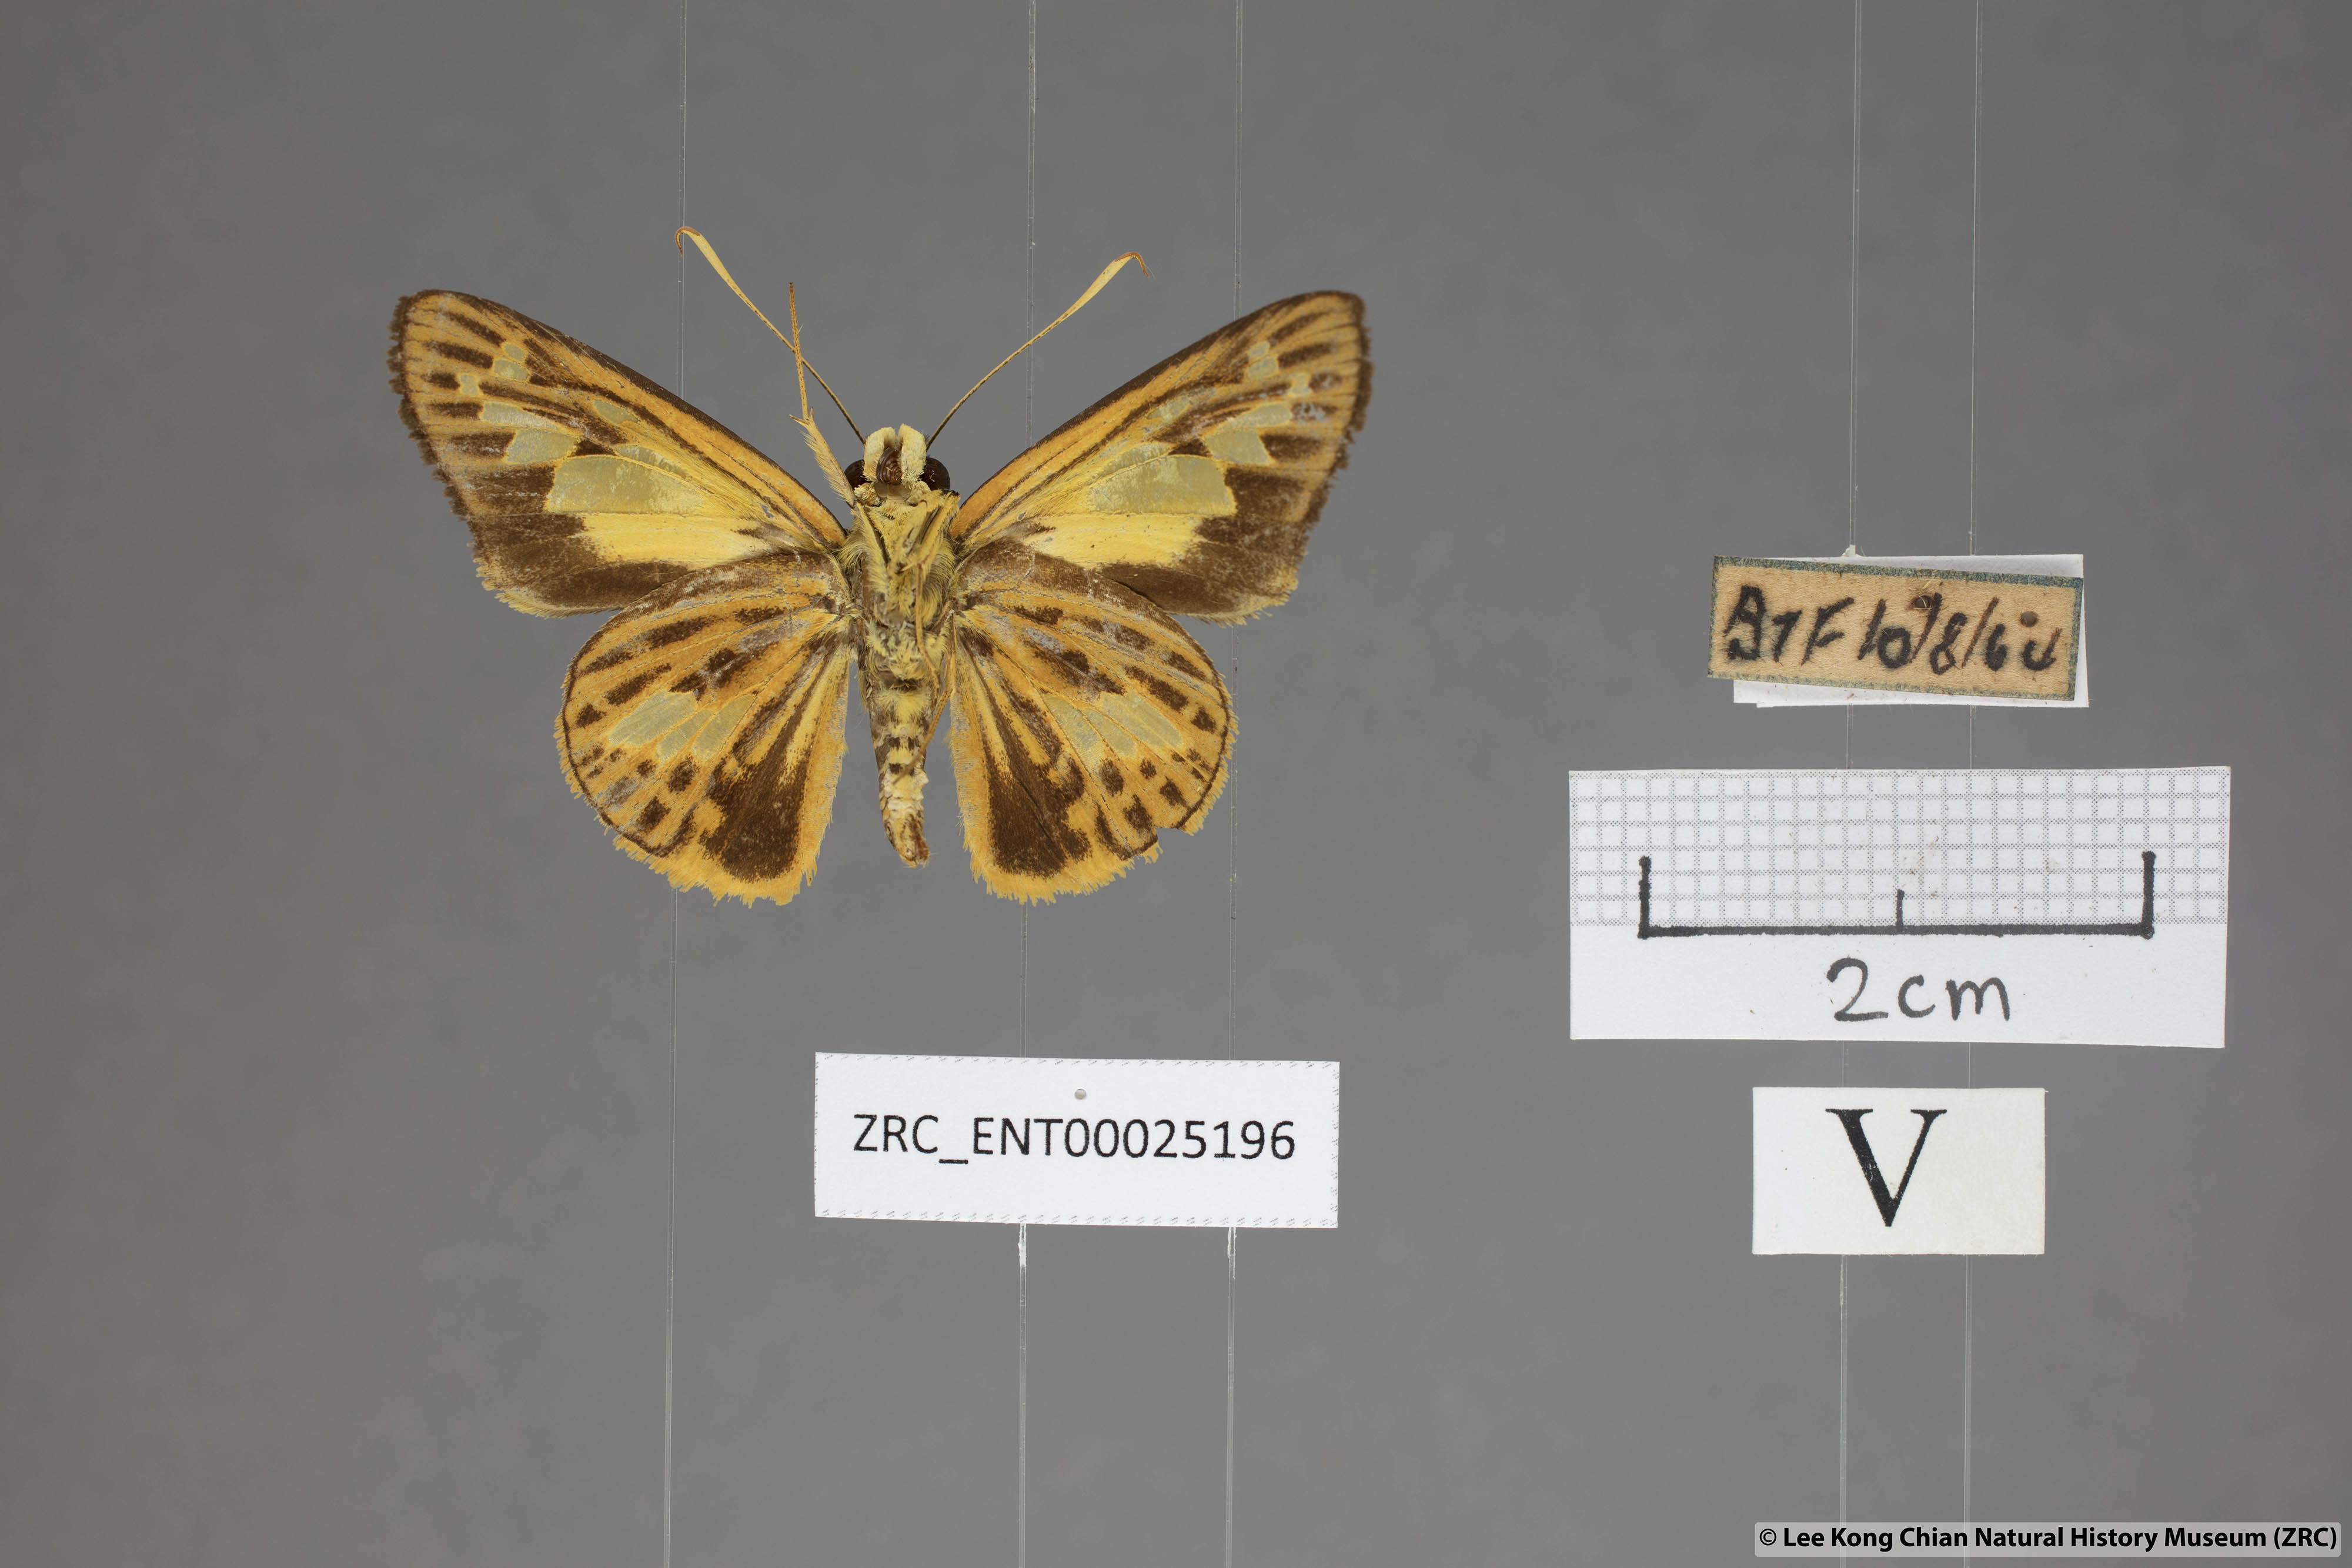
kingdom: Animalia
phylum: Arthropoda
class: Insecta
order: Lepidoptera
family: Hesperiidae
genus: Pyroneura
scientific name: Pyroneura
